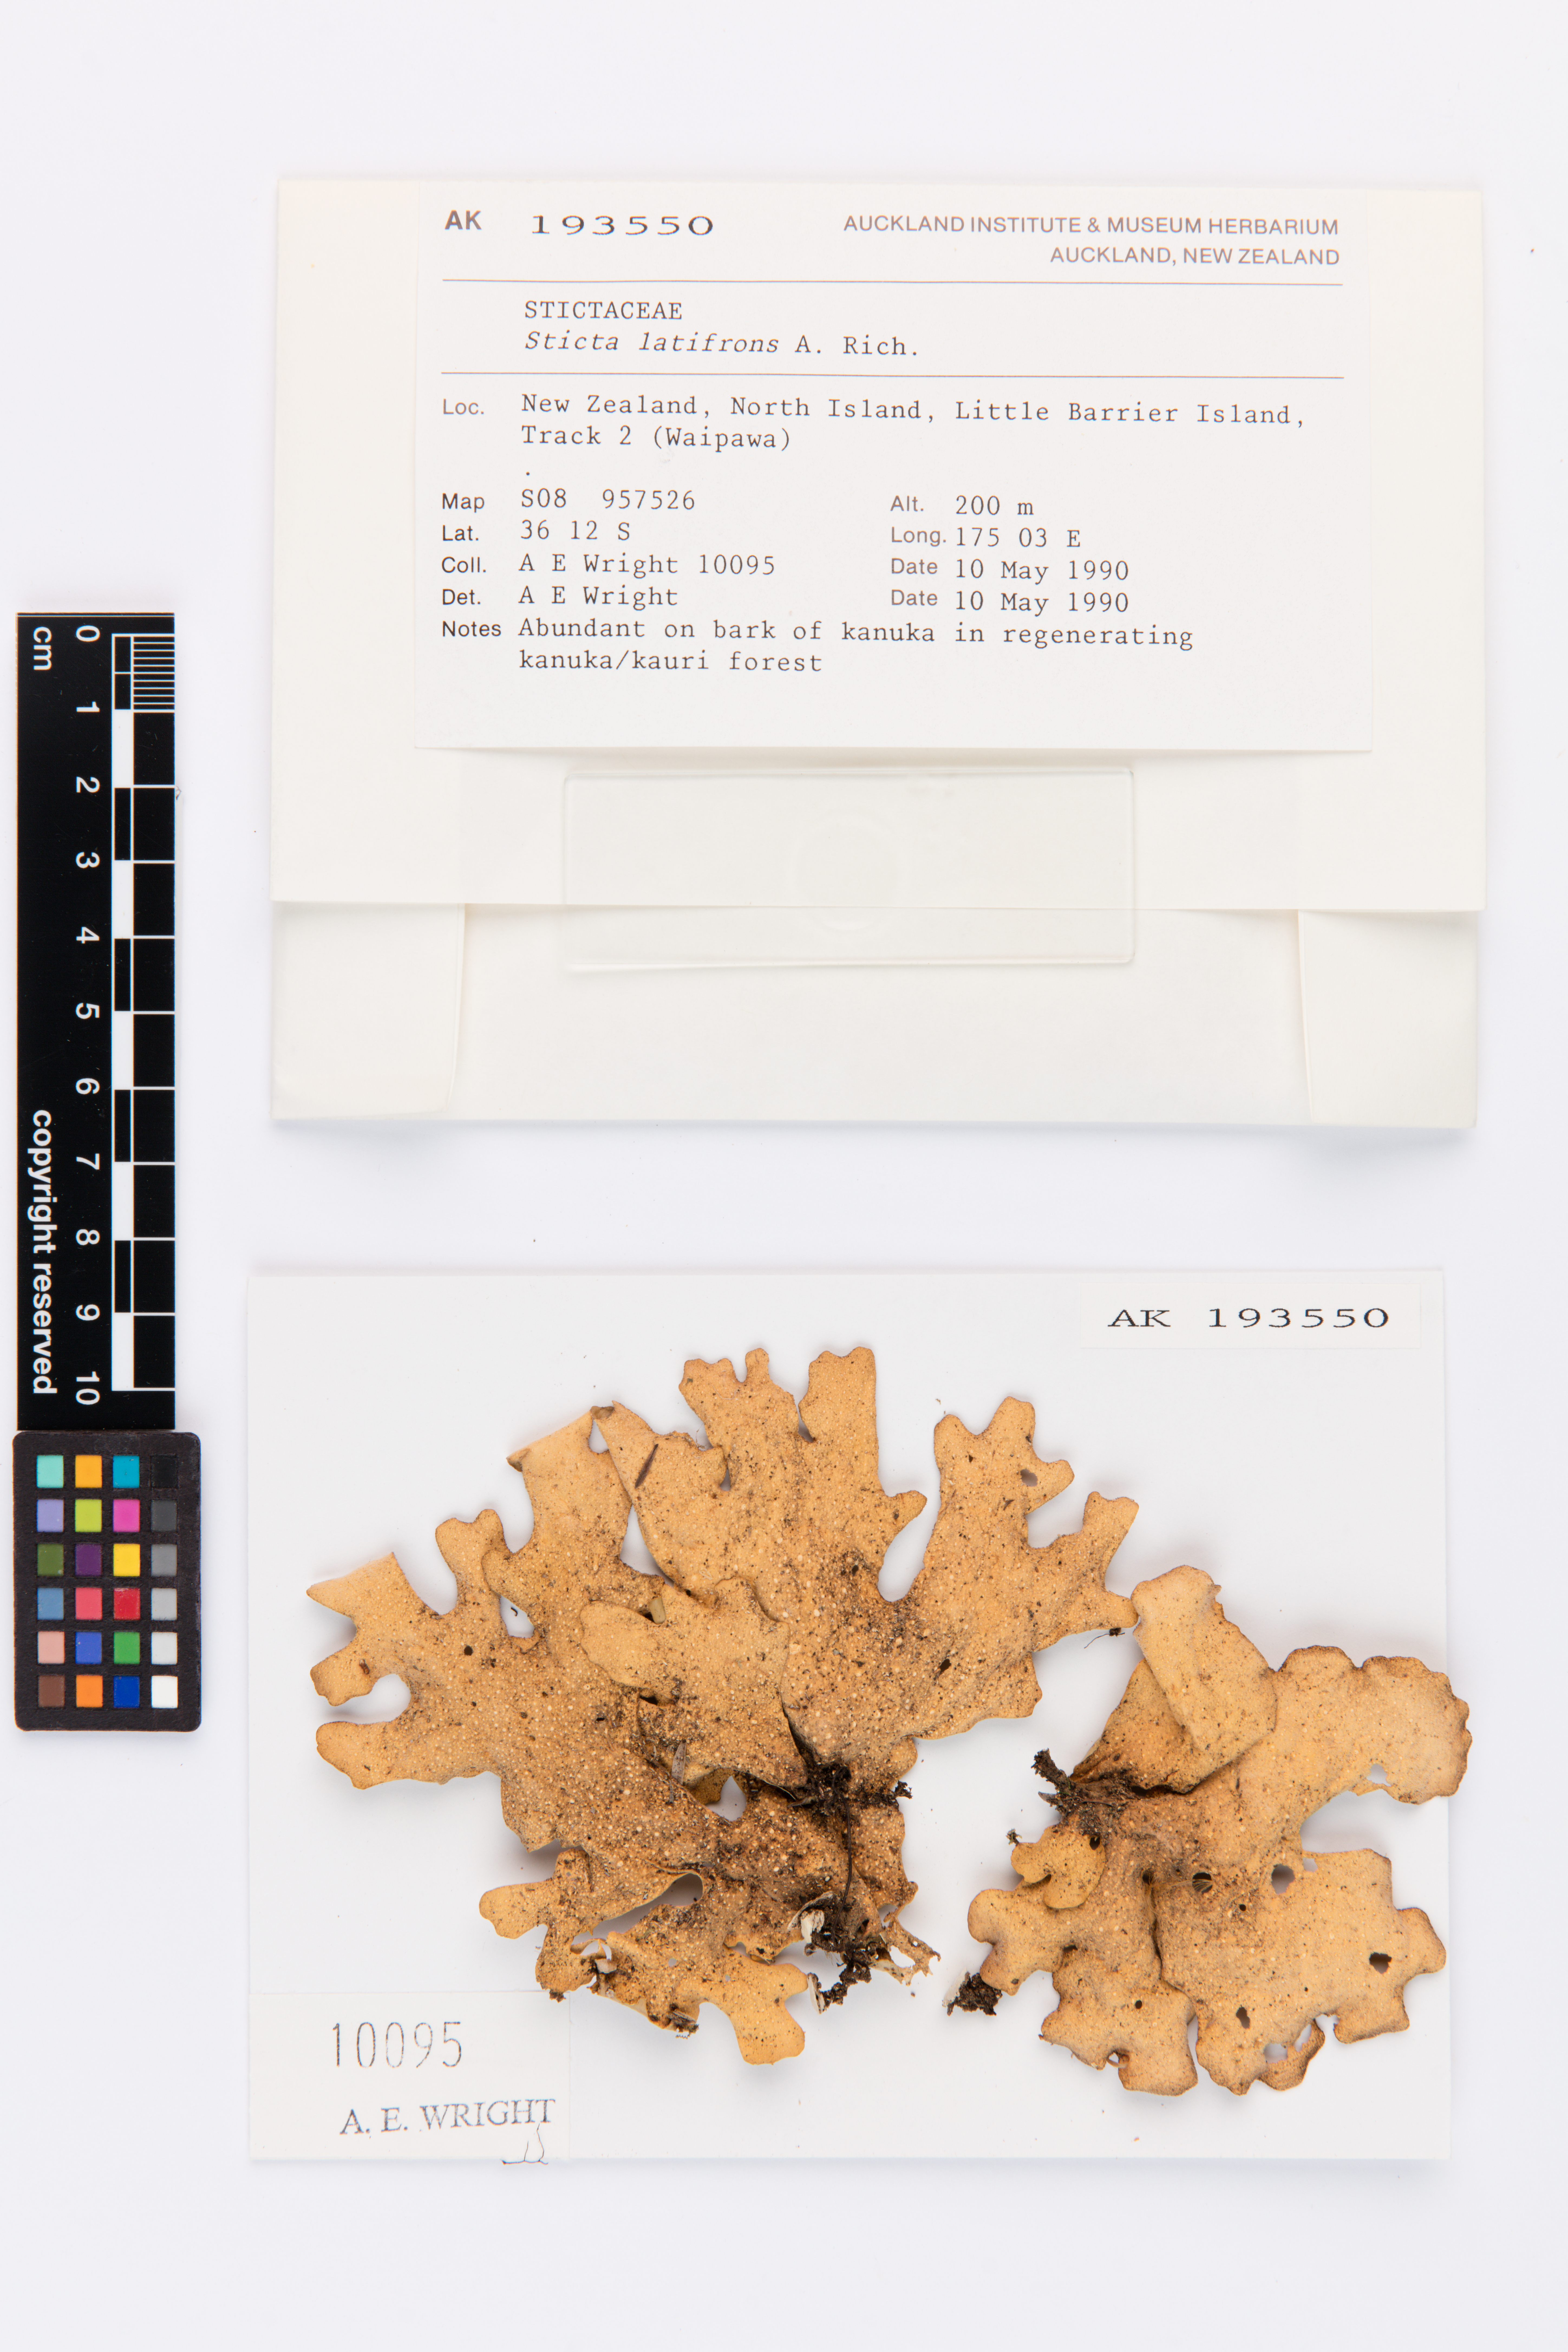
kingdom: Fungi
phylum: Ascomycota
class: Lecanoromycetes
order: Peltigerales
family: Lobariaceae
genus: Sticta
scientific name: Sticta latifrons
